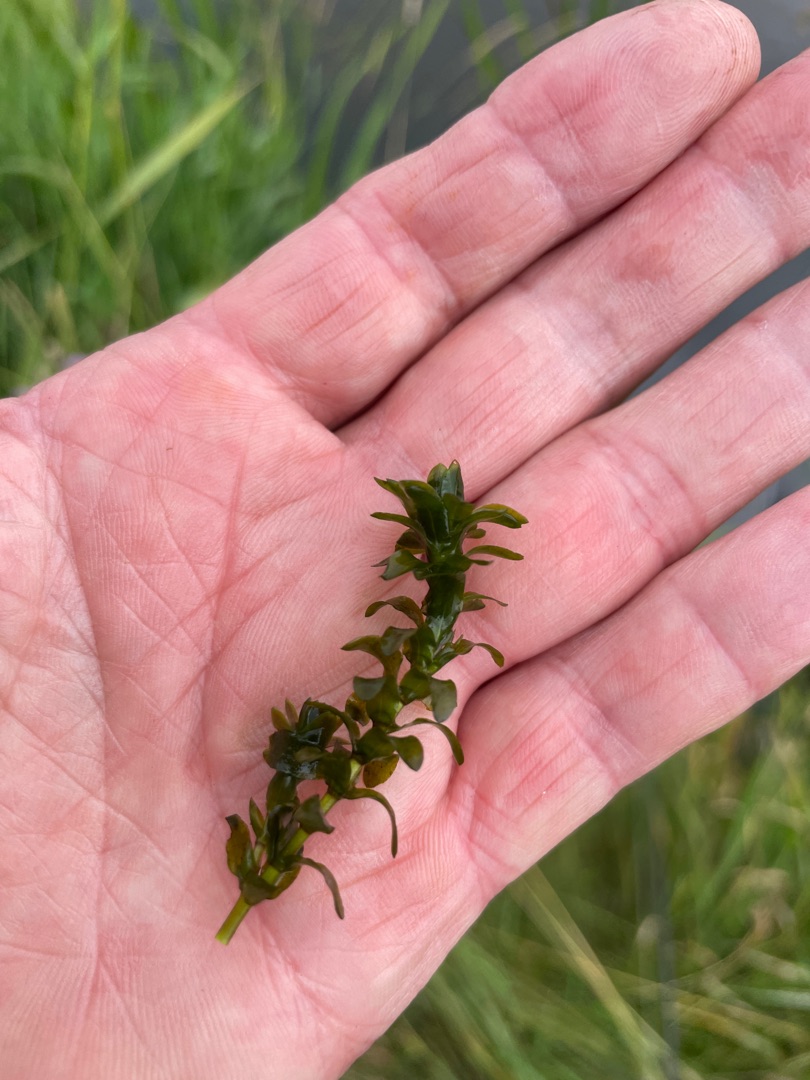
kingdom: Plantae
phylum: Tracheophyta
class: Liliopsida
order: Alismatales
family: Hydrocharitaceae
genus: Elodea
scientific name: Elodea canadensis
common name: Vandpest
